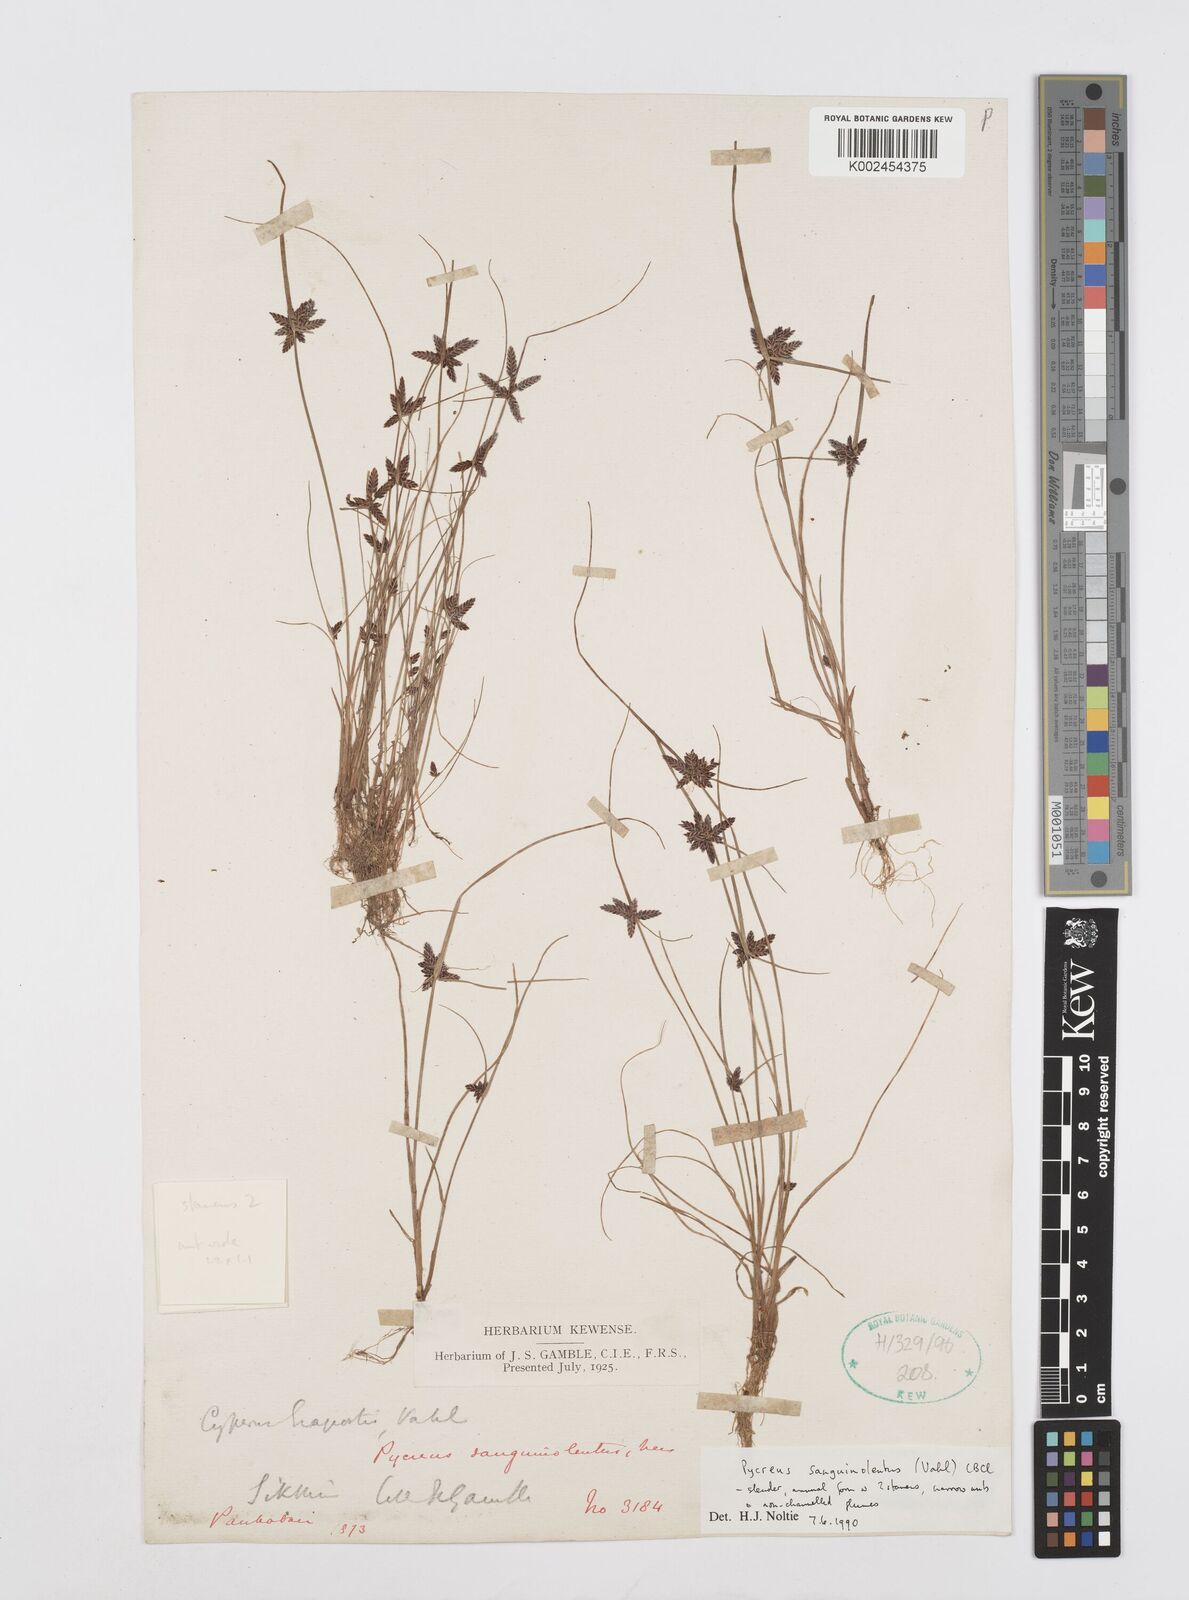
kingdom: Plantae
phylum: Tracheophyta
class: Liliopsida
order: Poales
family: Cyperaceae
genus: Cyperus
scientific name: Cyperus sanguinolentus
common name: Purpleglume flatsedge
